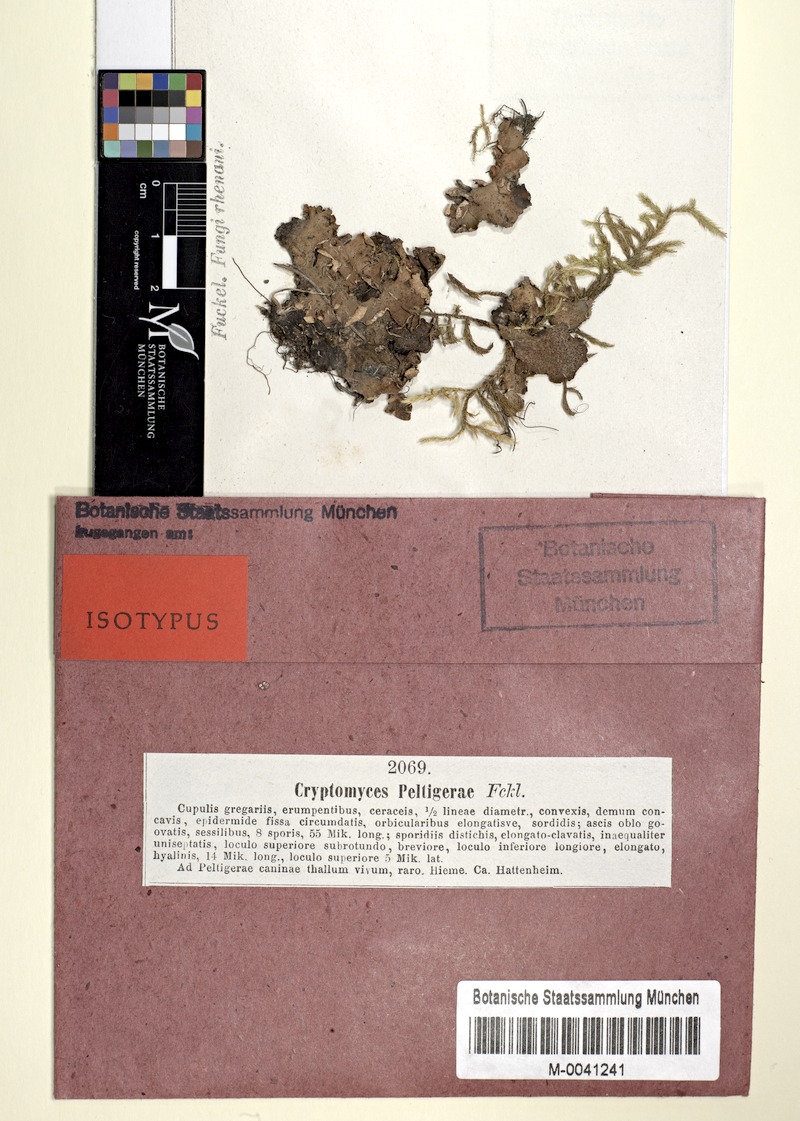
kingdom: Fungi
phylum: Ascomycota
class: Lecanoromycetes
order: Ostropales
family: Gomphillaceae
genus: Corticifraga
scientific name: Corticifraga fuckelii
